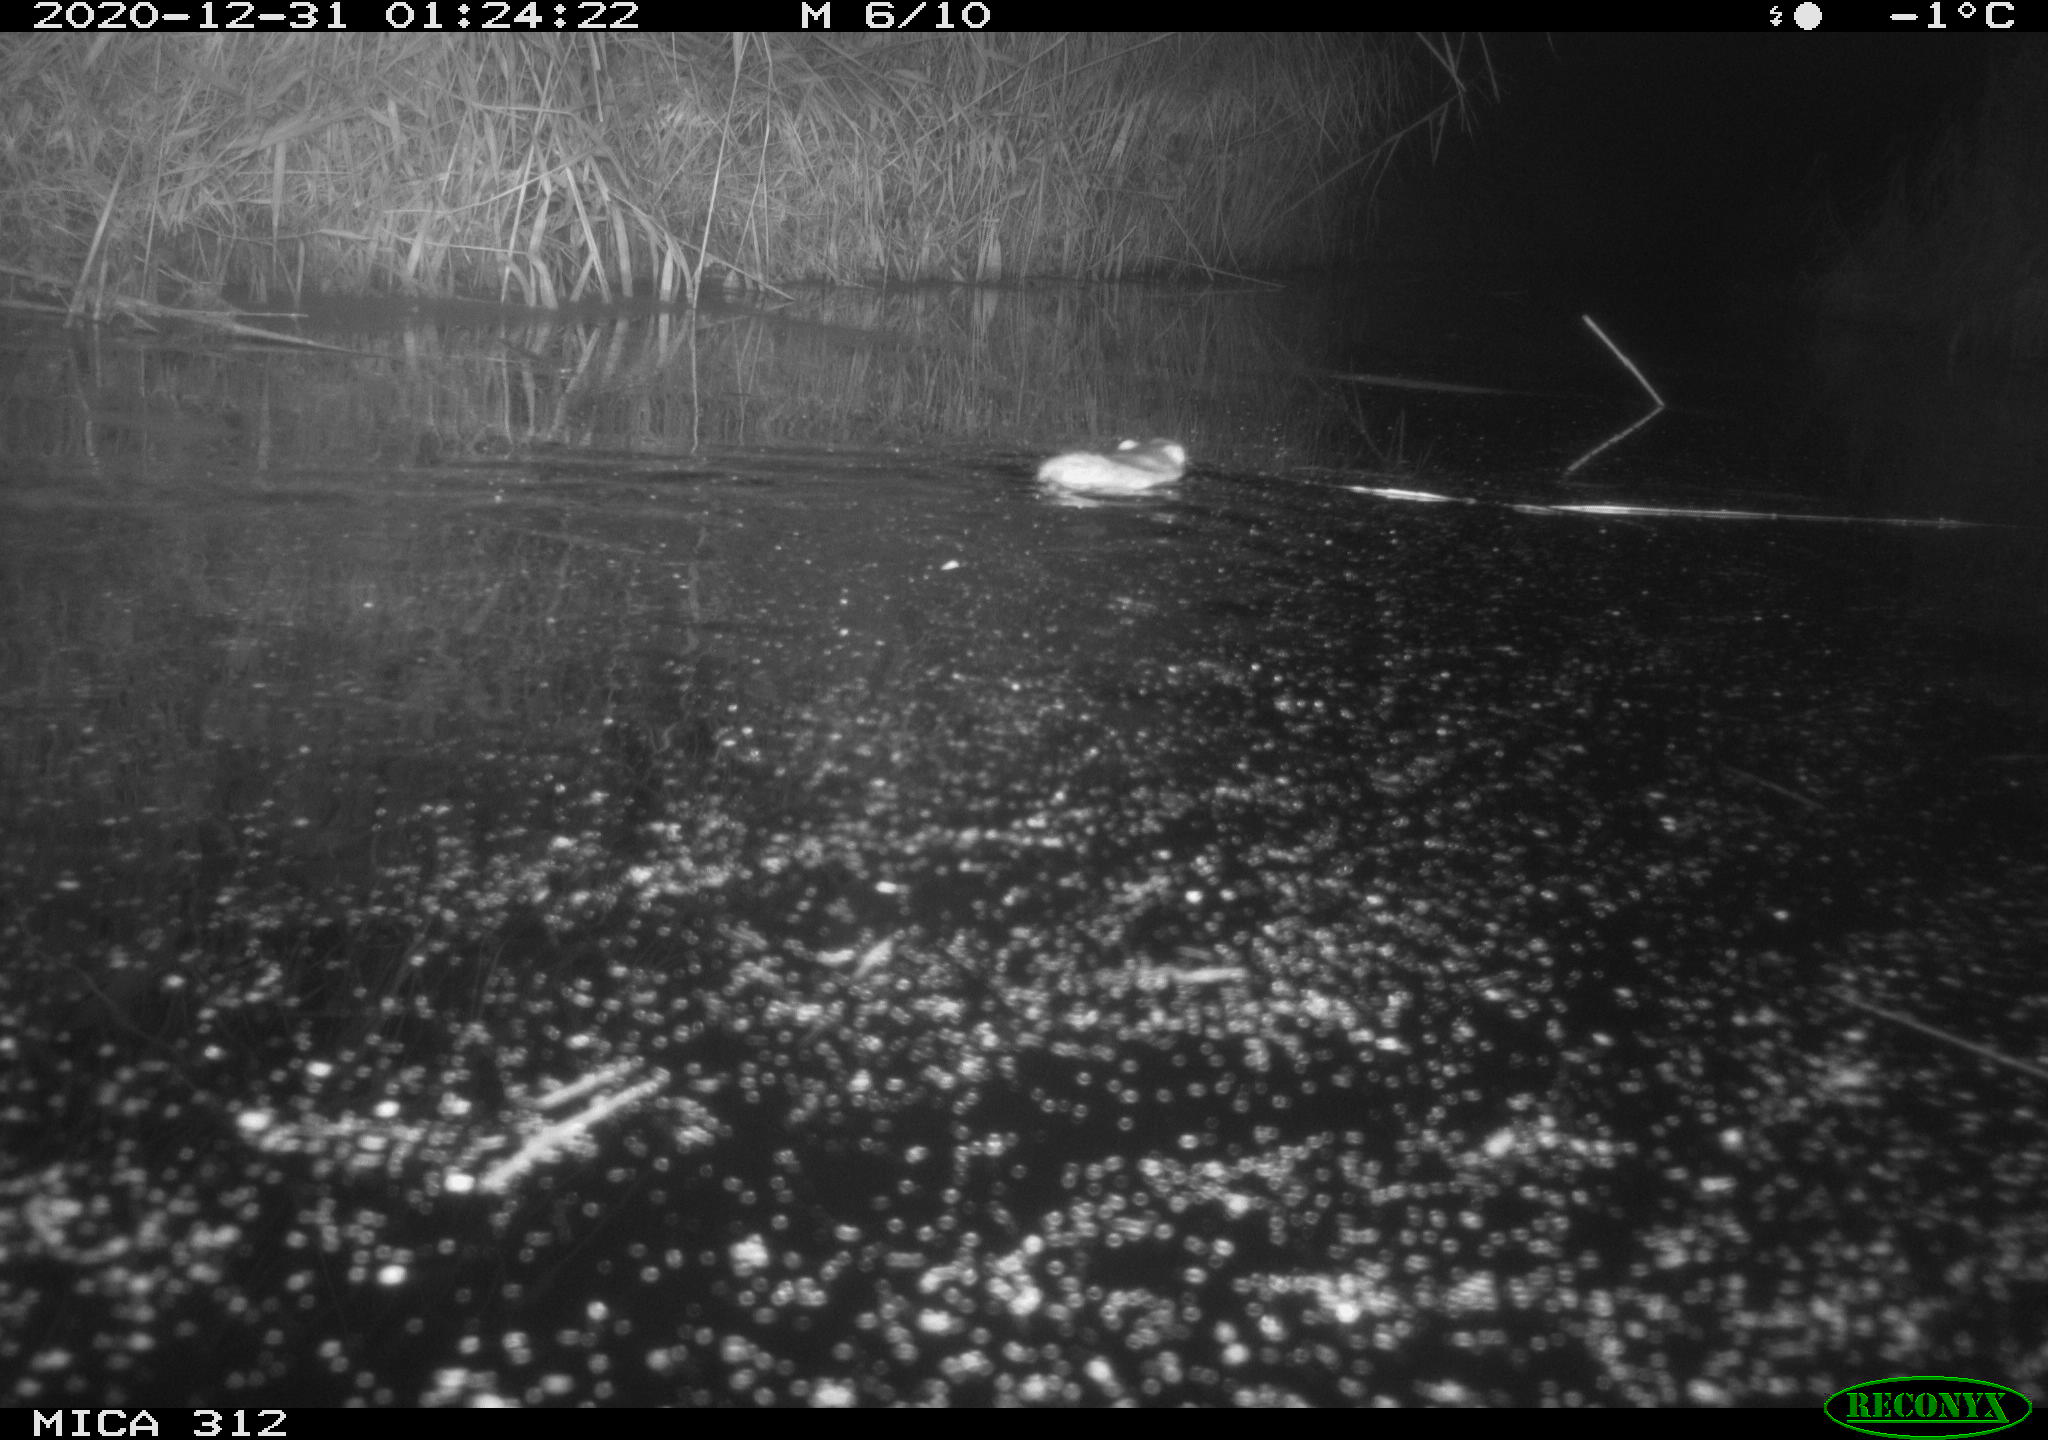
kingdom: Animalia
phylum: Chordata
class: Mammalia
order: Rodentia
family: Muridae
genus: Rattus
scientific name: Rattus norvegicus
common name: Brown rat
